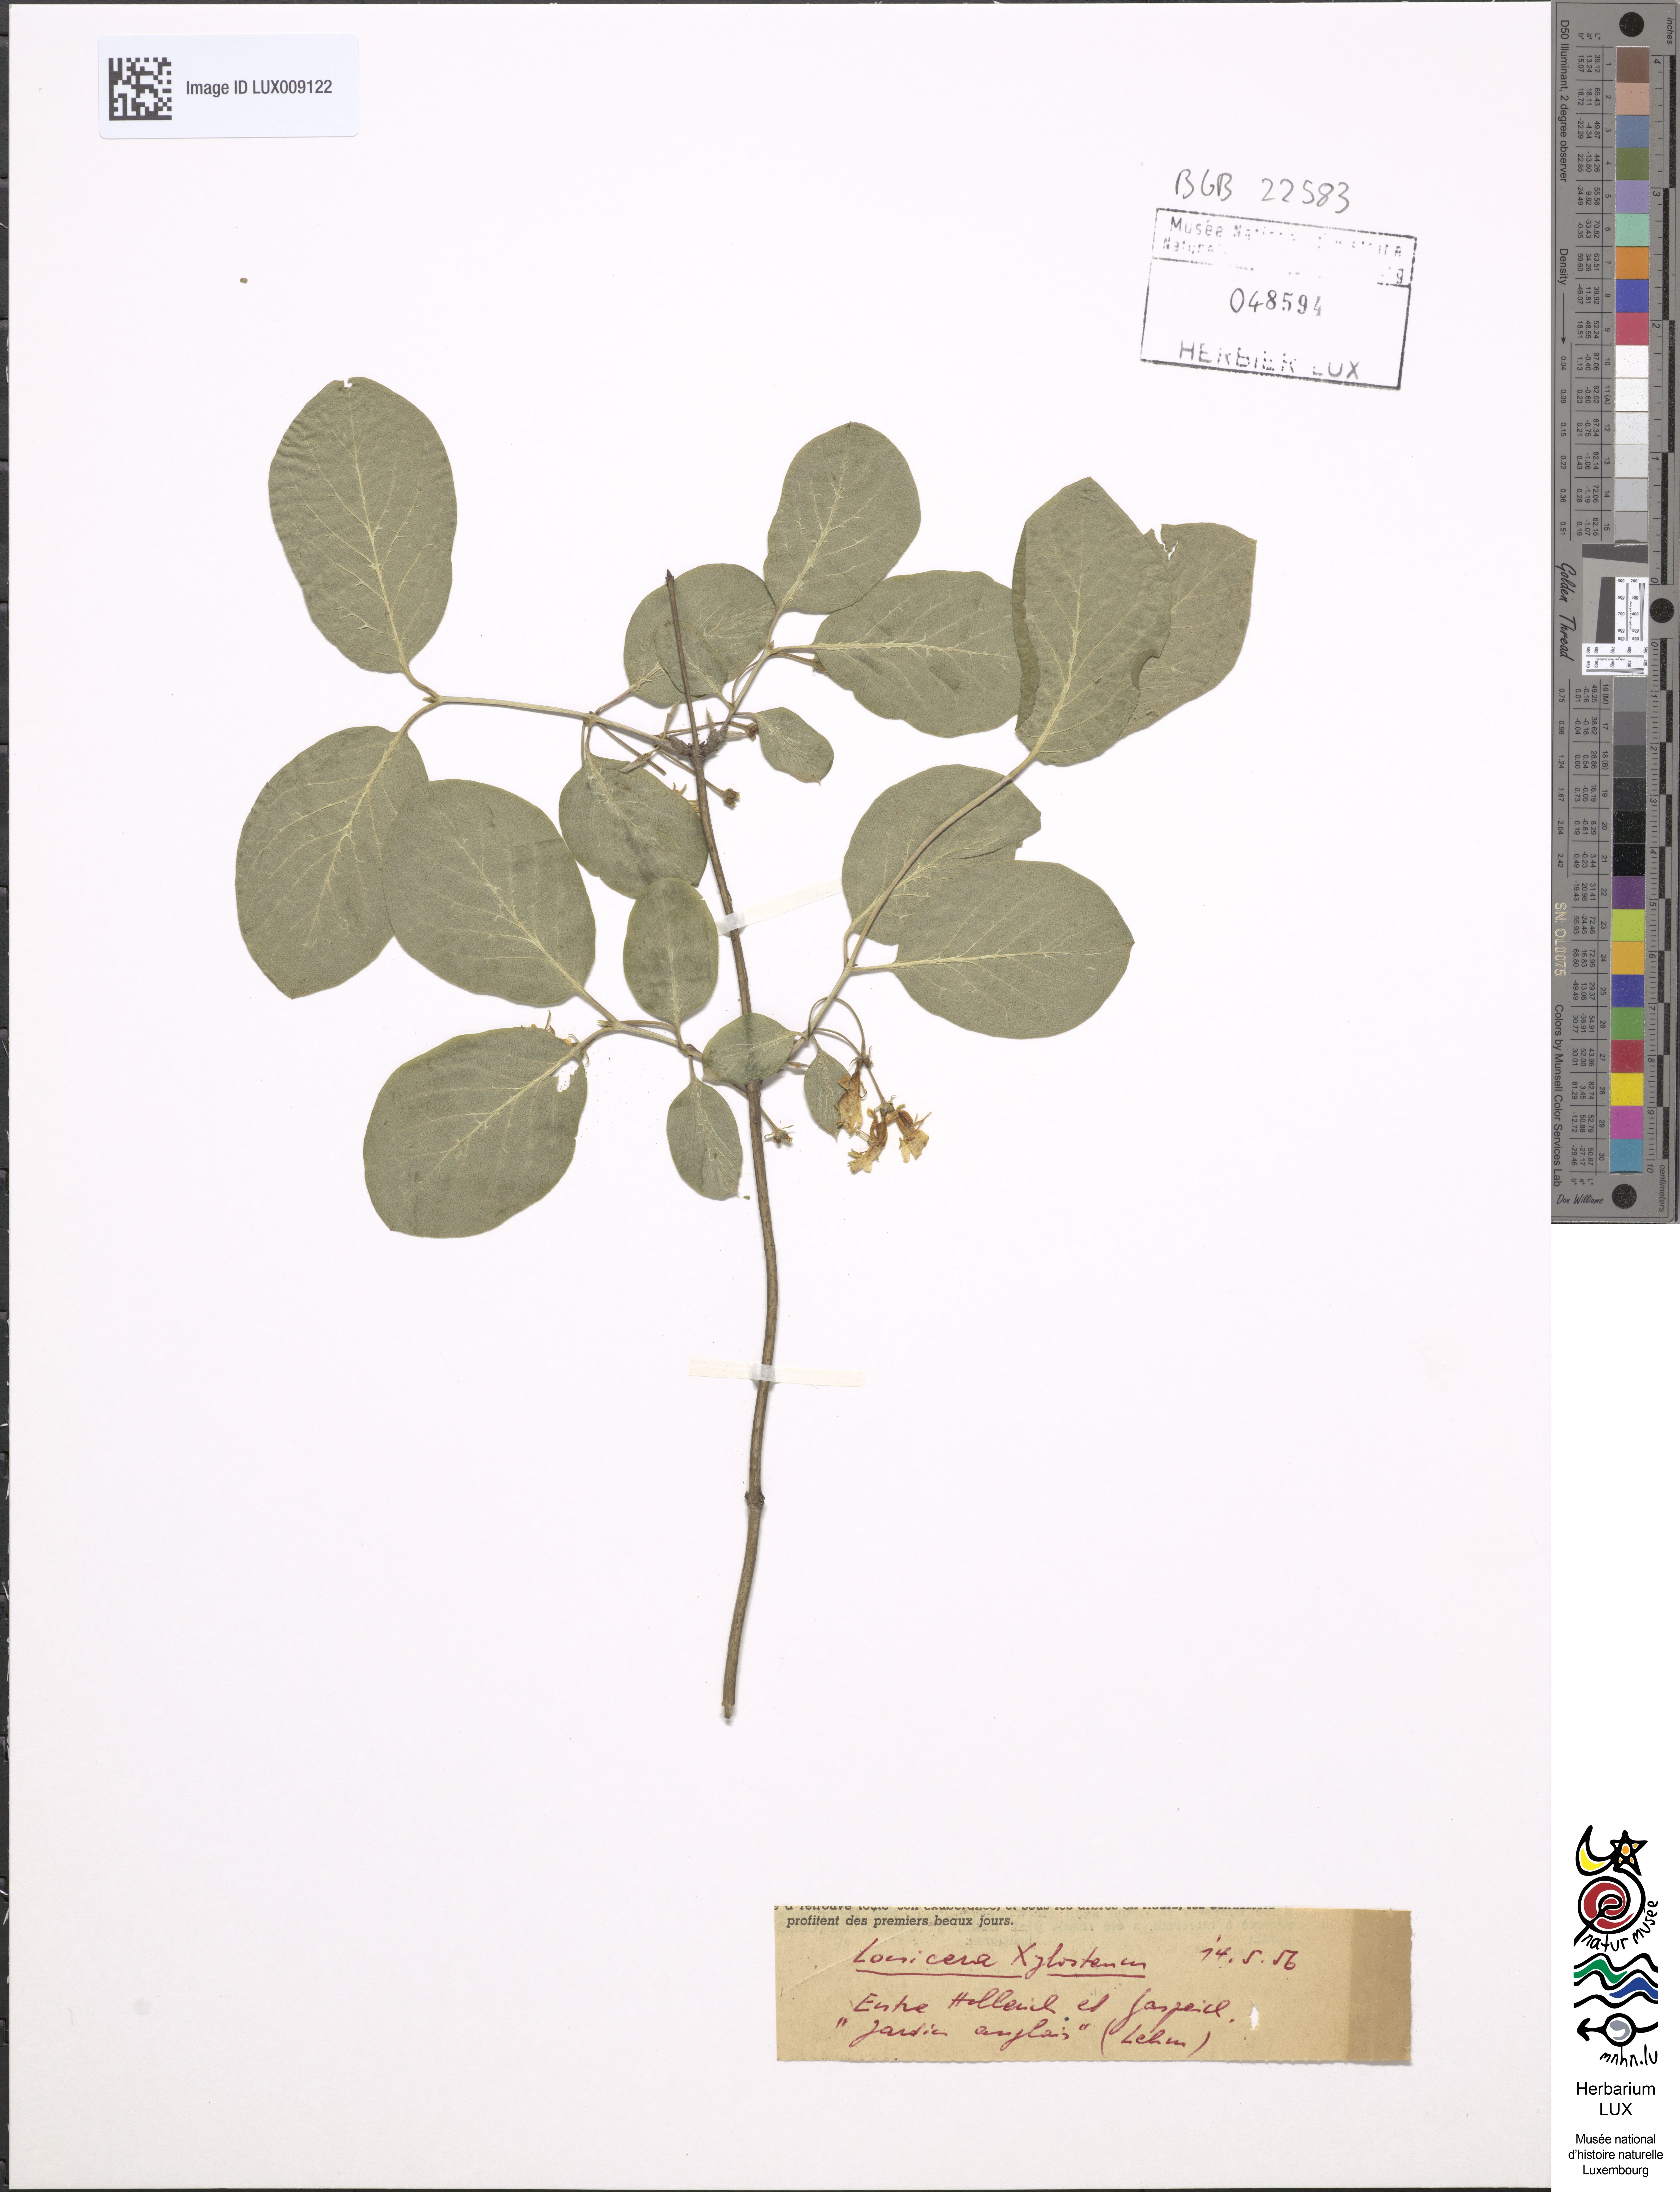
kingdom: Plantae
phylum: Tracheophyta
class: Magnoliopsida
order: Dipsacales
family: Caprifoliaceae
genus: Lonicera
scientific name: Lonicera xylosteum
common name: Fly honeysuckle
